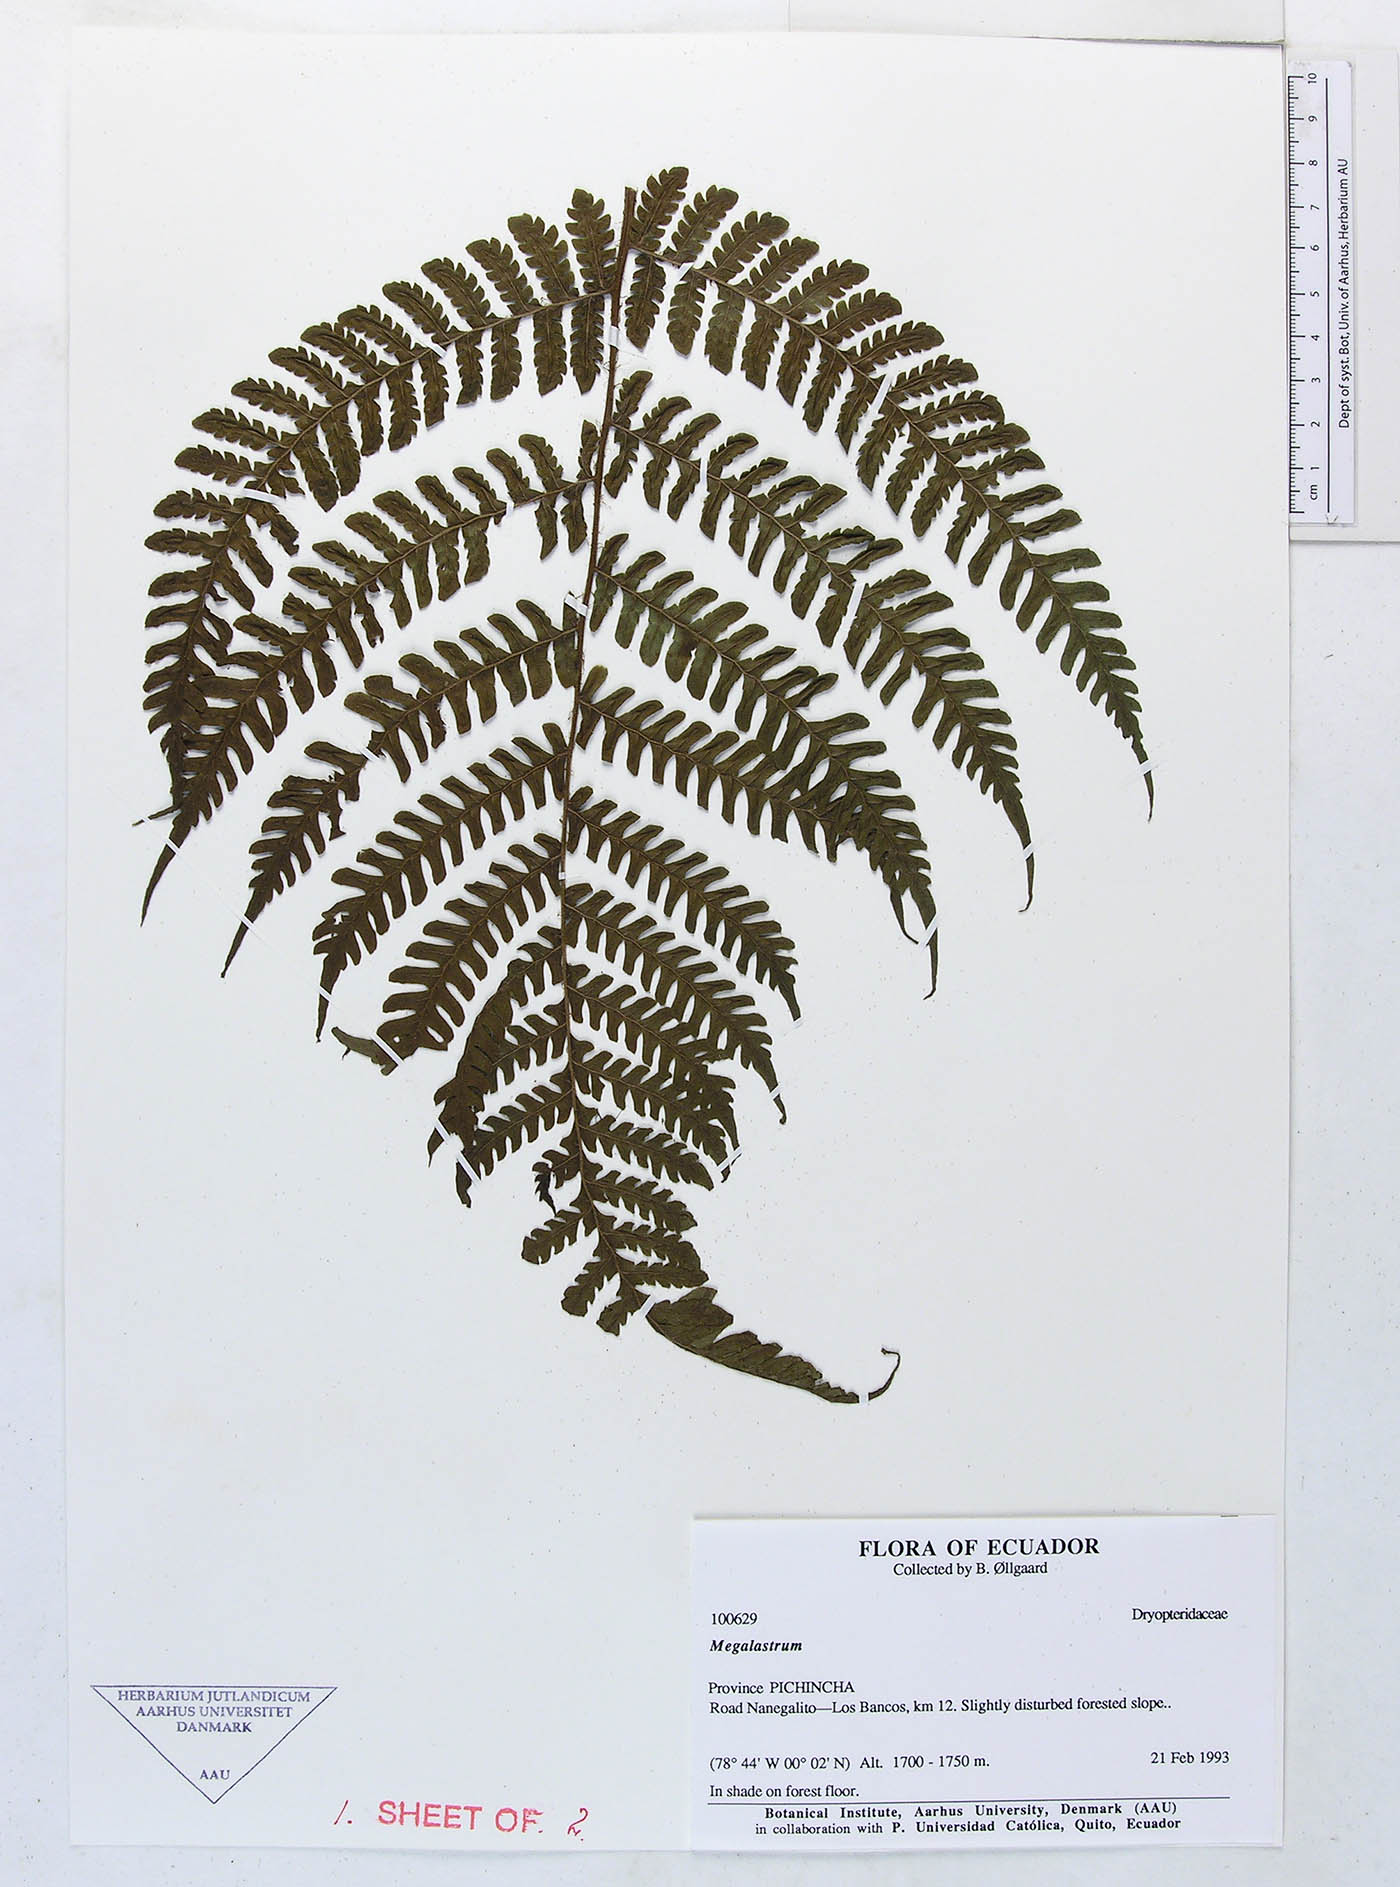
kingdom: Plantae
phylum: Tracheophyta
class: Polypodiopsida
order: Polypodiales
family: Dryopteridaceae
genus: Megalastrum
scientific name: Megalastrum vastum
